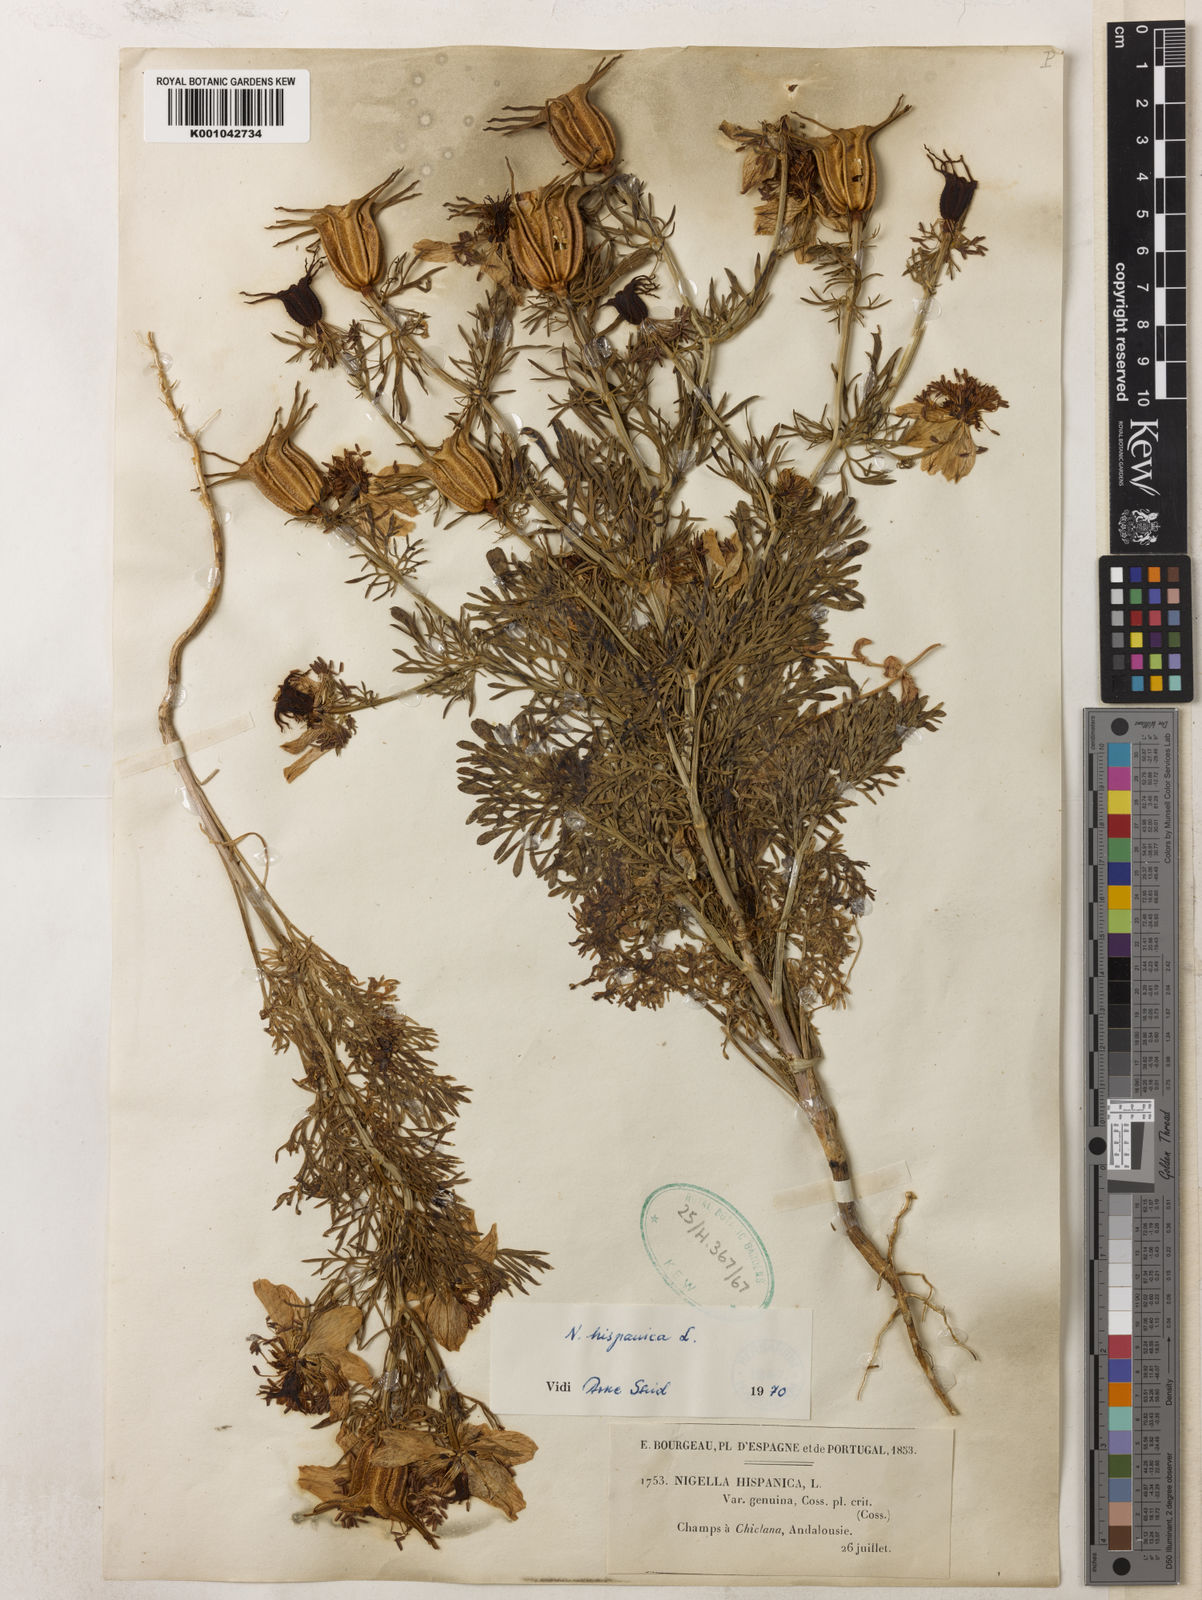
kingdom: Plantae
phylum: Tracheophyta
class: Magnoliopsida
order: Ranunculales
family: Ranunculaceae
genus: Nigella
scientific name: Nigella hispanica
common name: Fennel-flower
